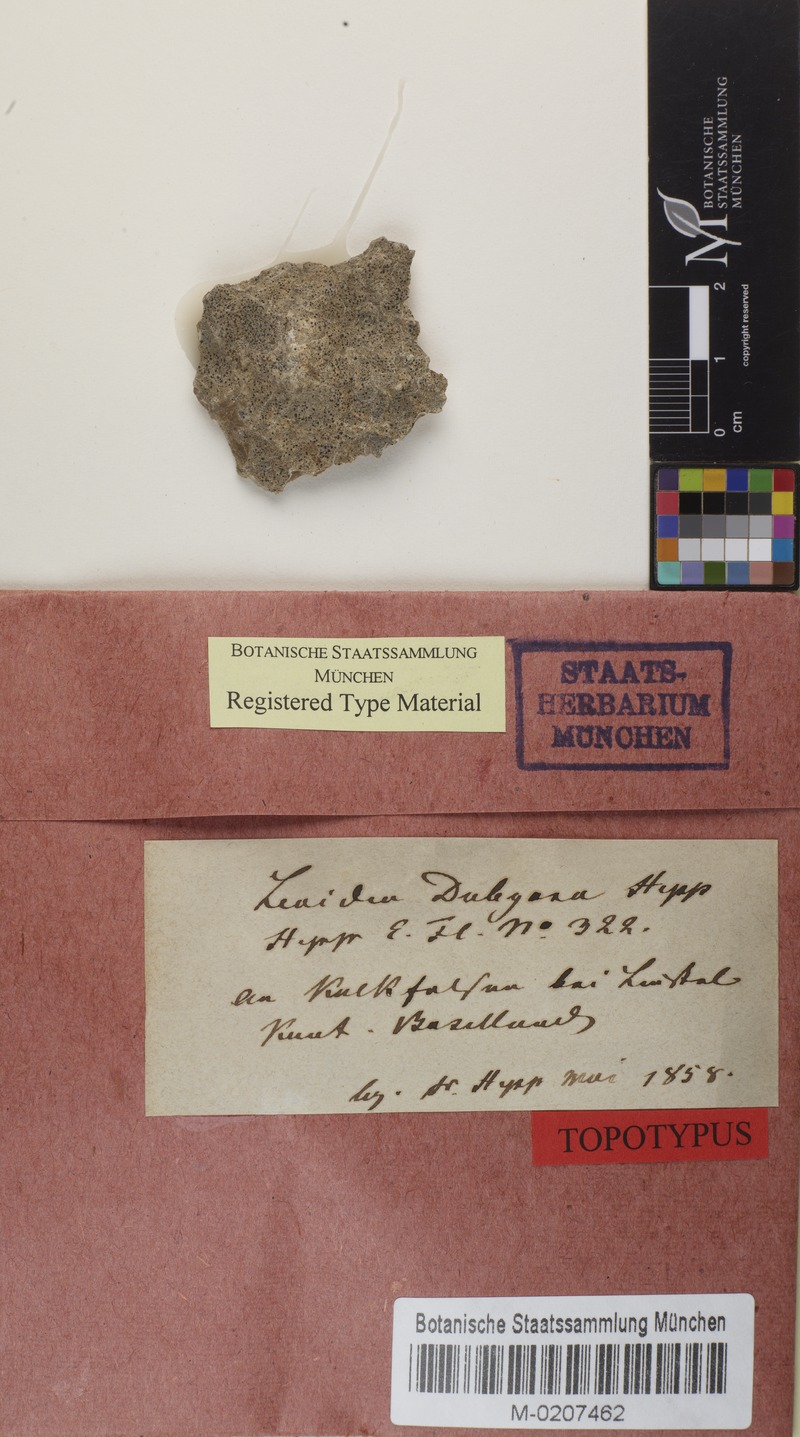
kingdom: Fungi
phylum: Ascomycota
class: Lecanoromycetes
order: Caliciales
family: Physciaceae
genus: Rinodina
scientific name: Rinodina dubyana
